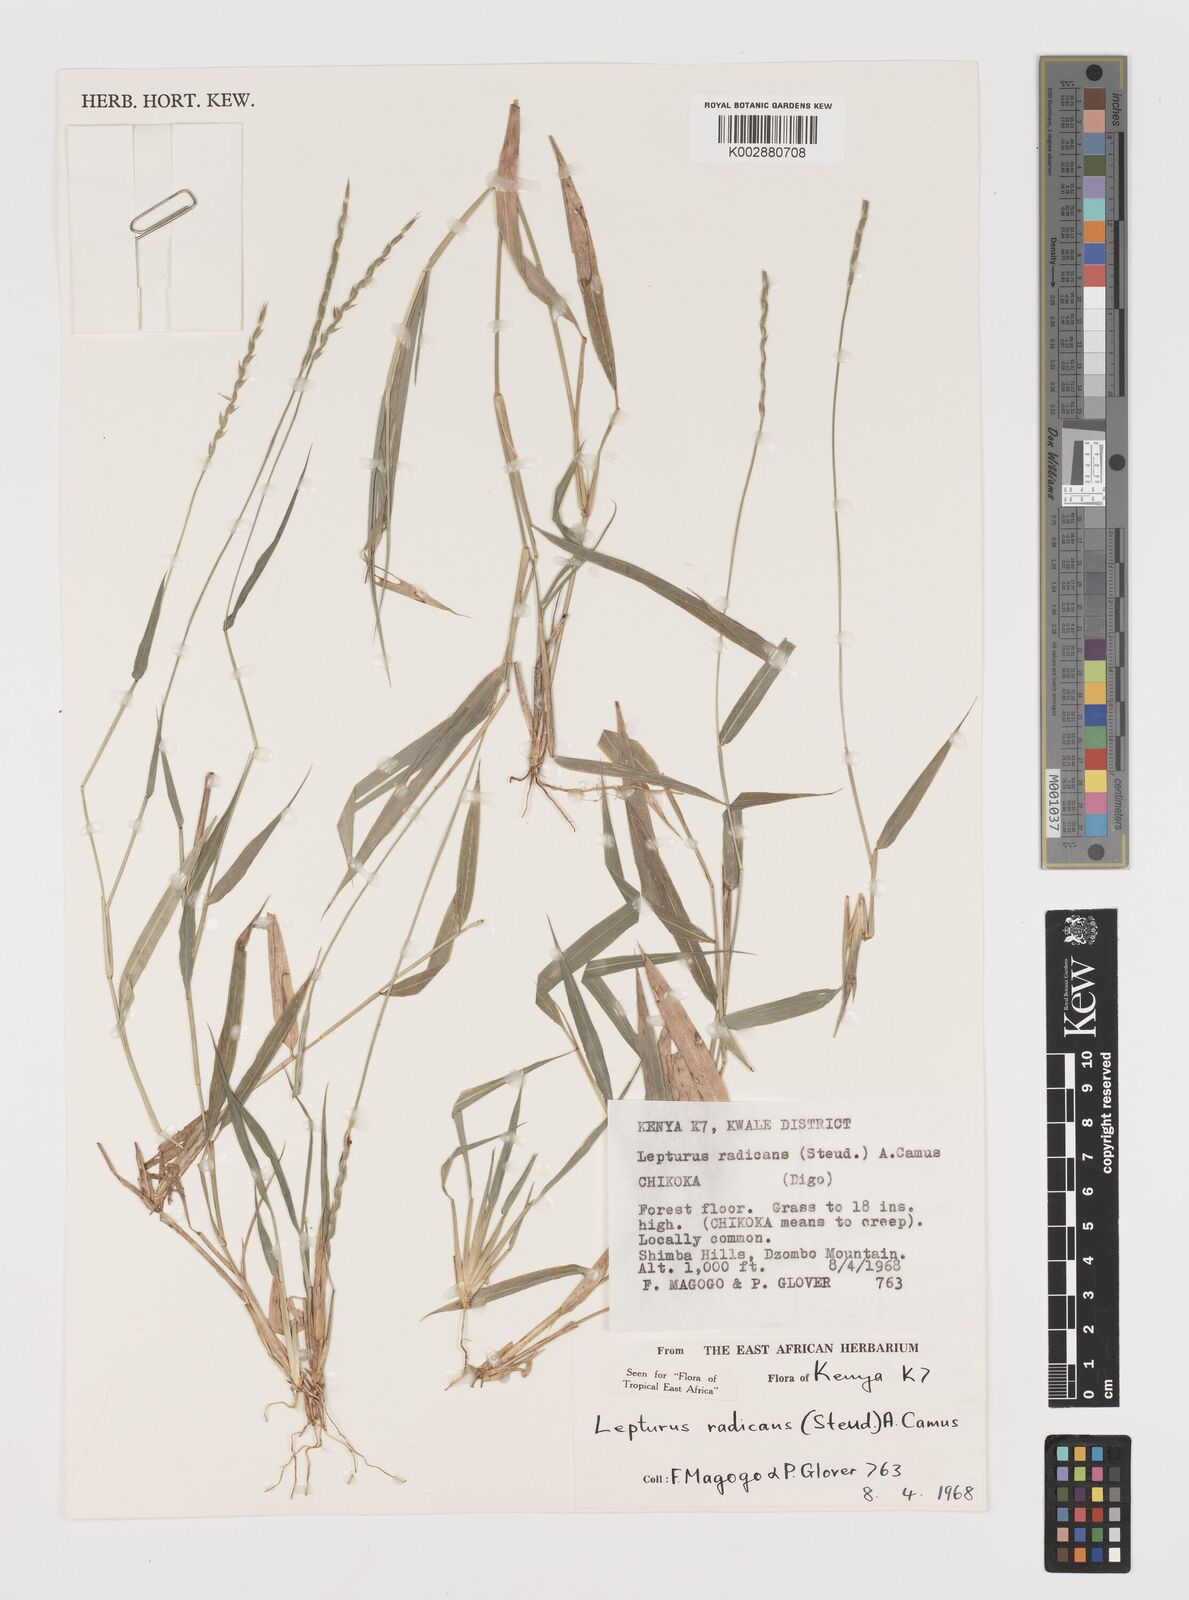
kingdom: Plantae
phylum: Tracheophyta
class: Liliopsida
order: Poales
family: Poaceae
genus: Lepturus
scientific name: Lepturus radicans
